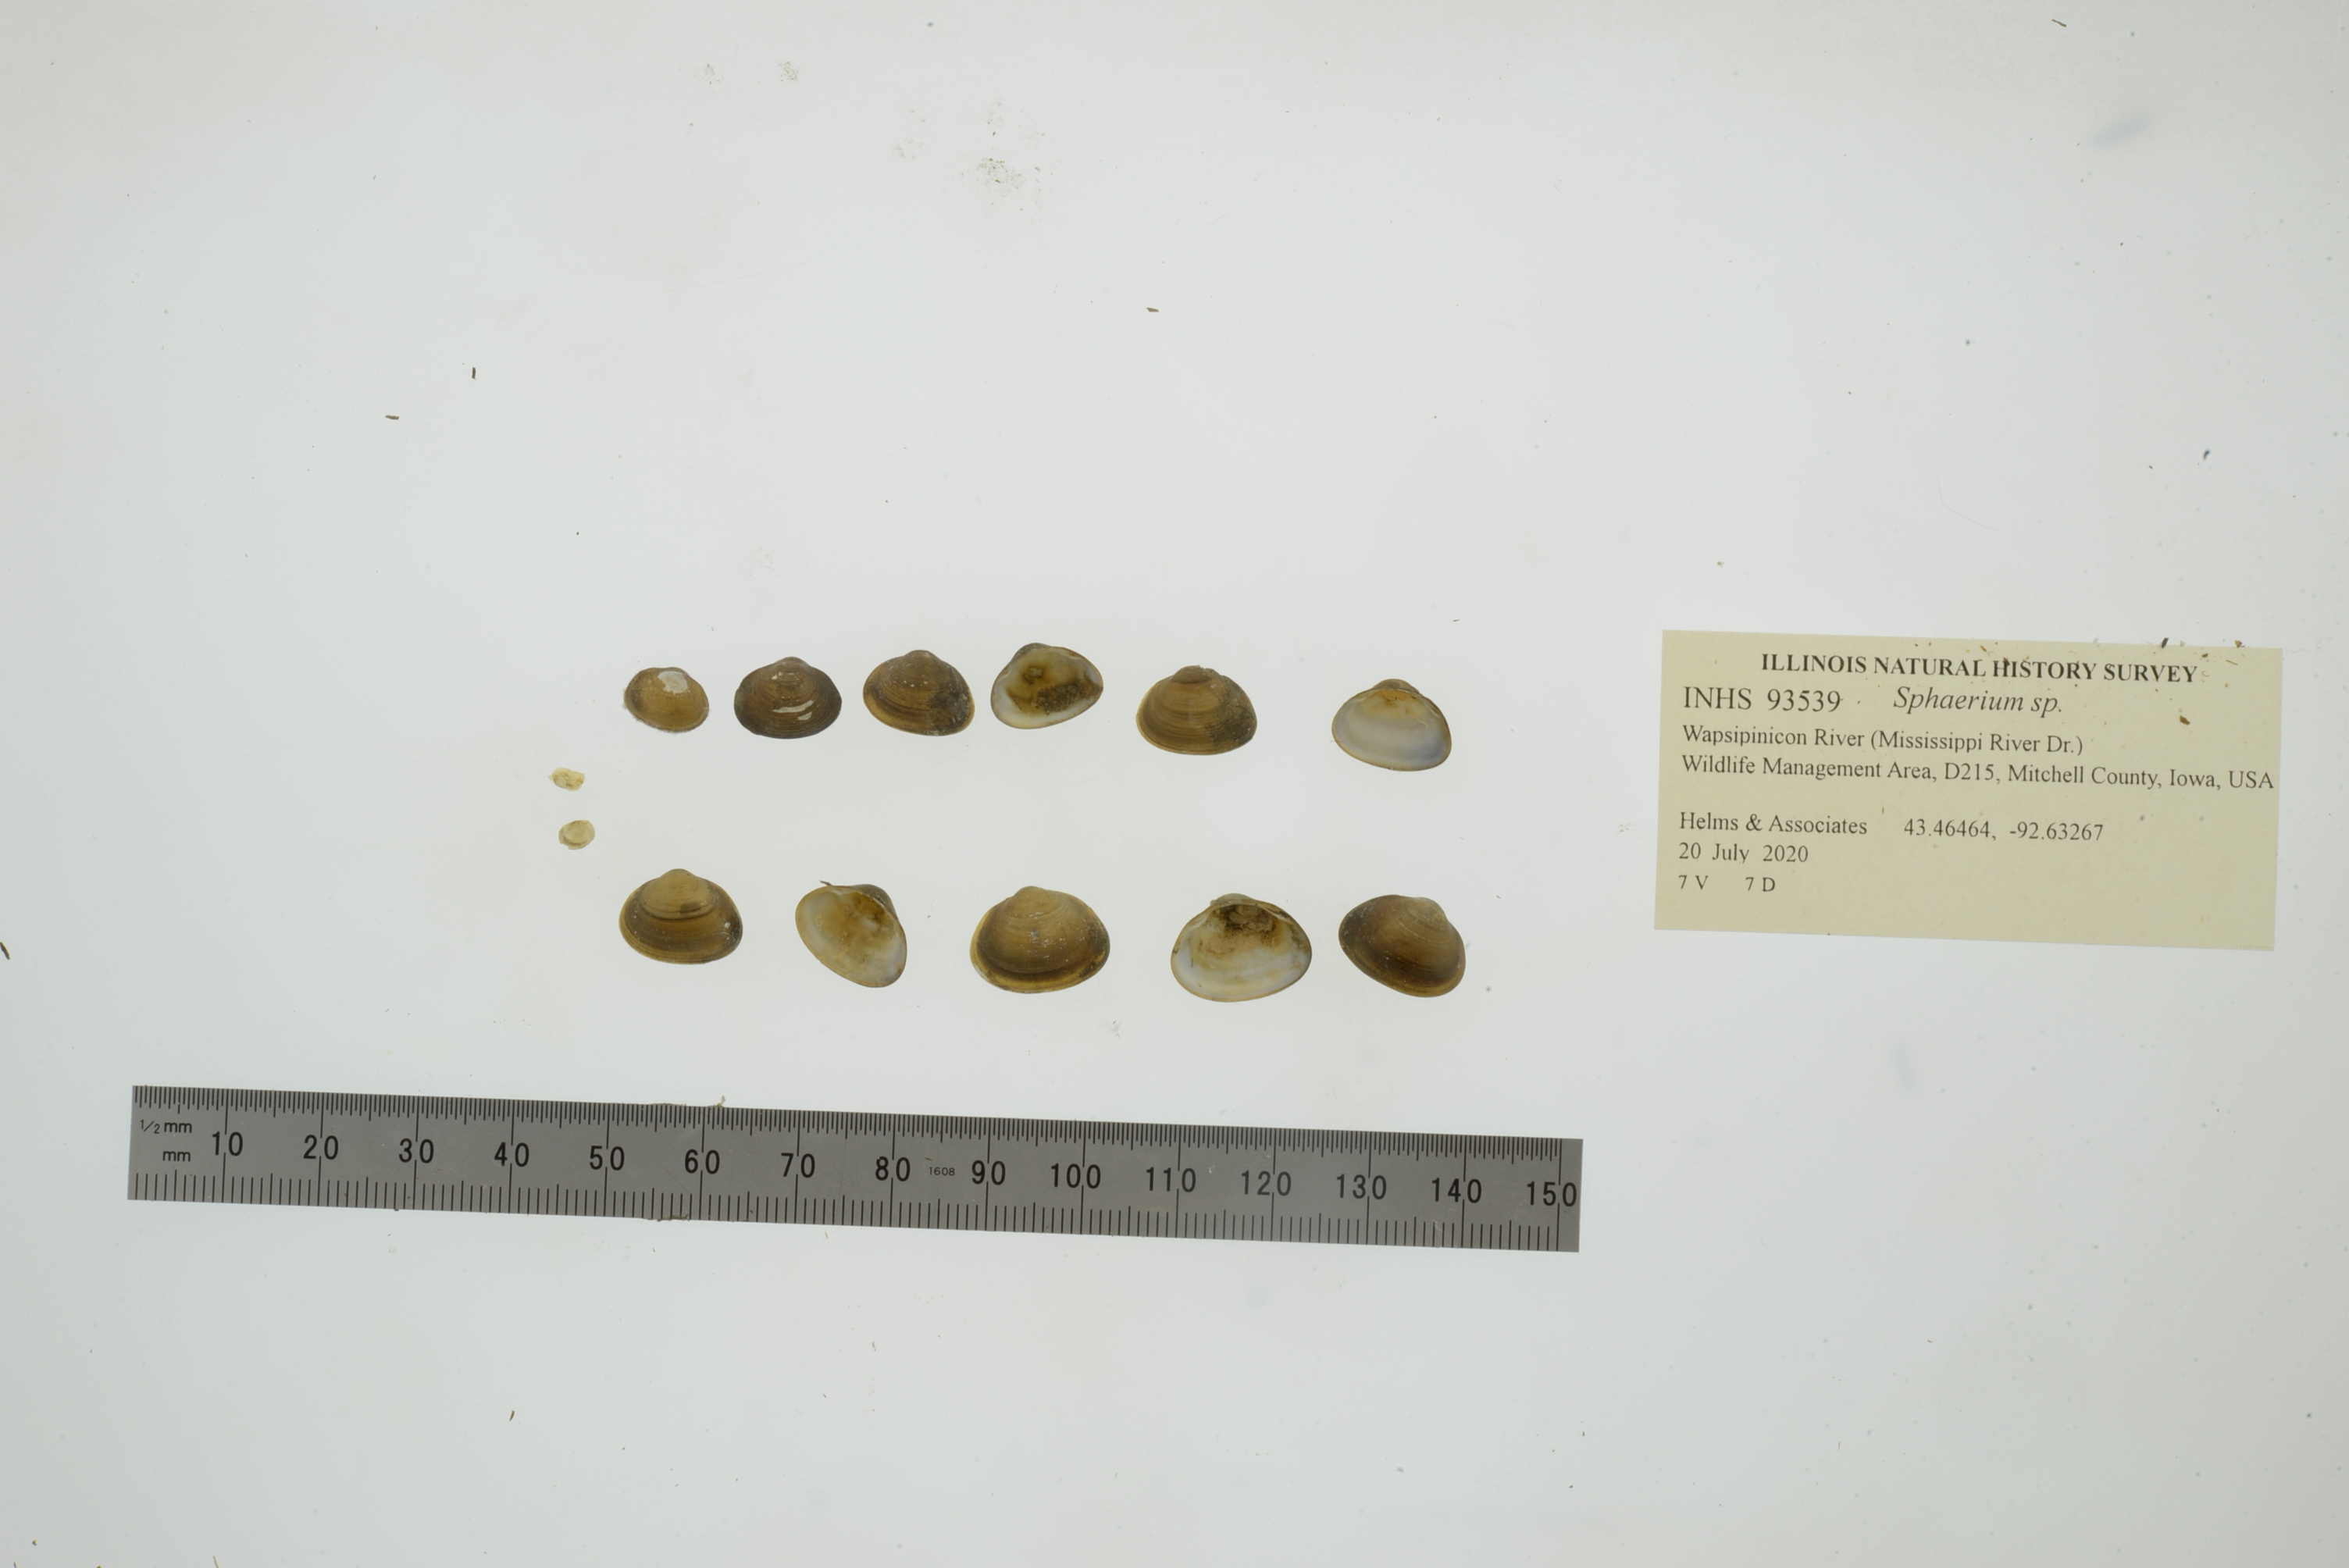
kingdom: Animalia
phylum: Mollusca
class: Bivalvia
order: Sphaeriida
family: Sphaeriidae
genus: Sphaerium
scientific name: Sphaerium
